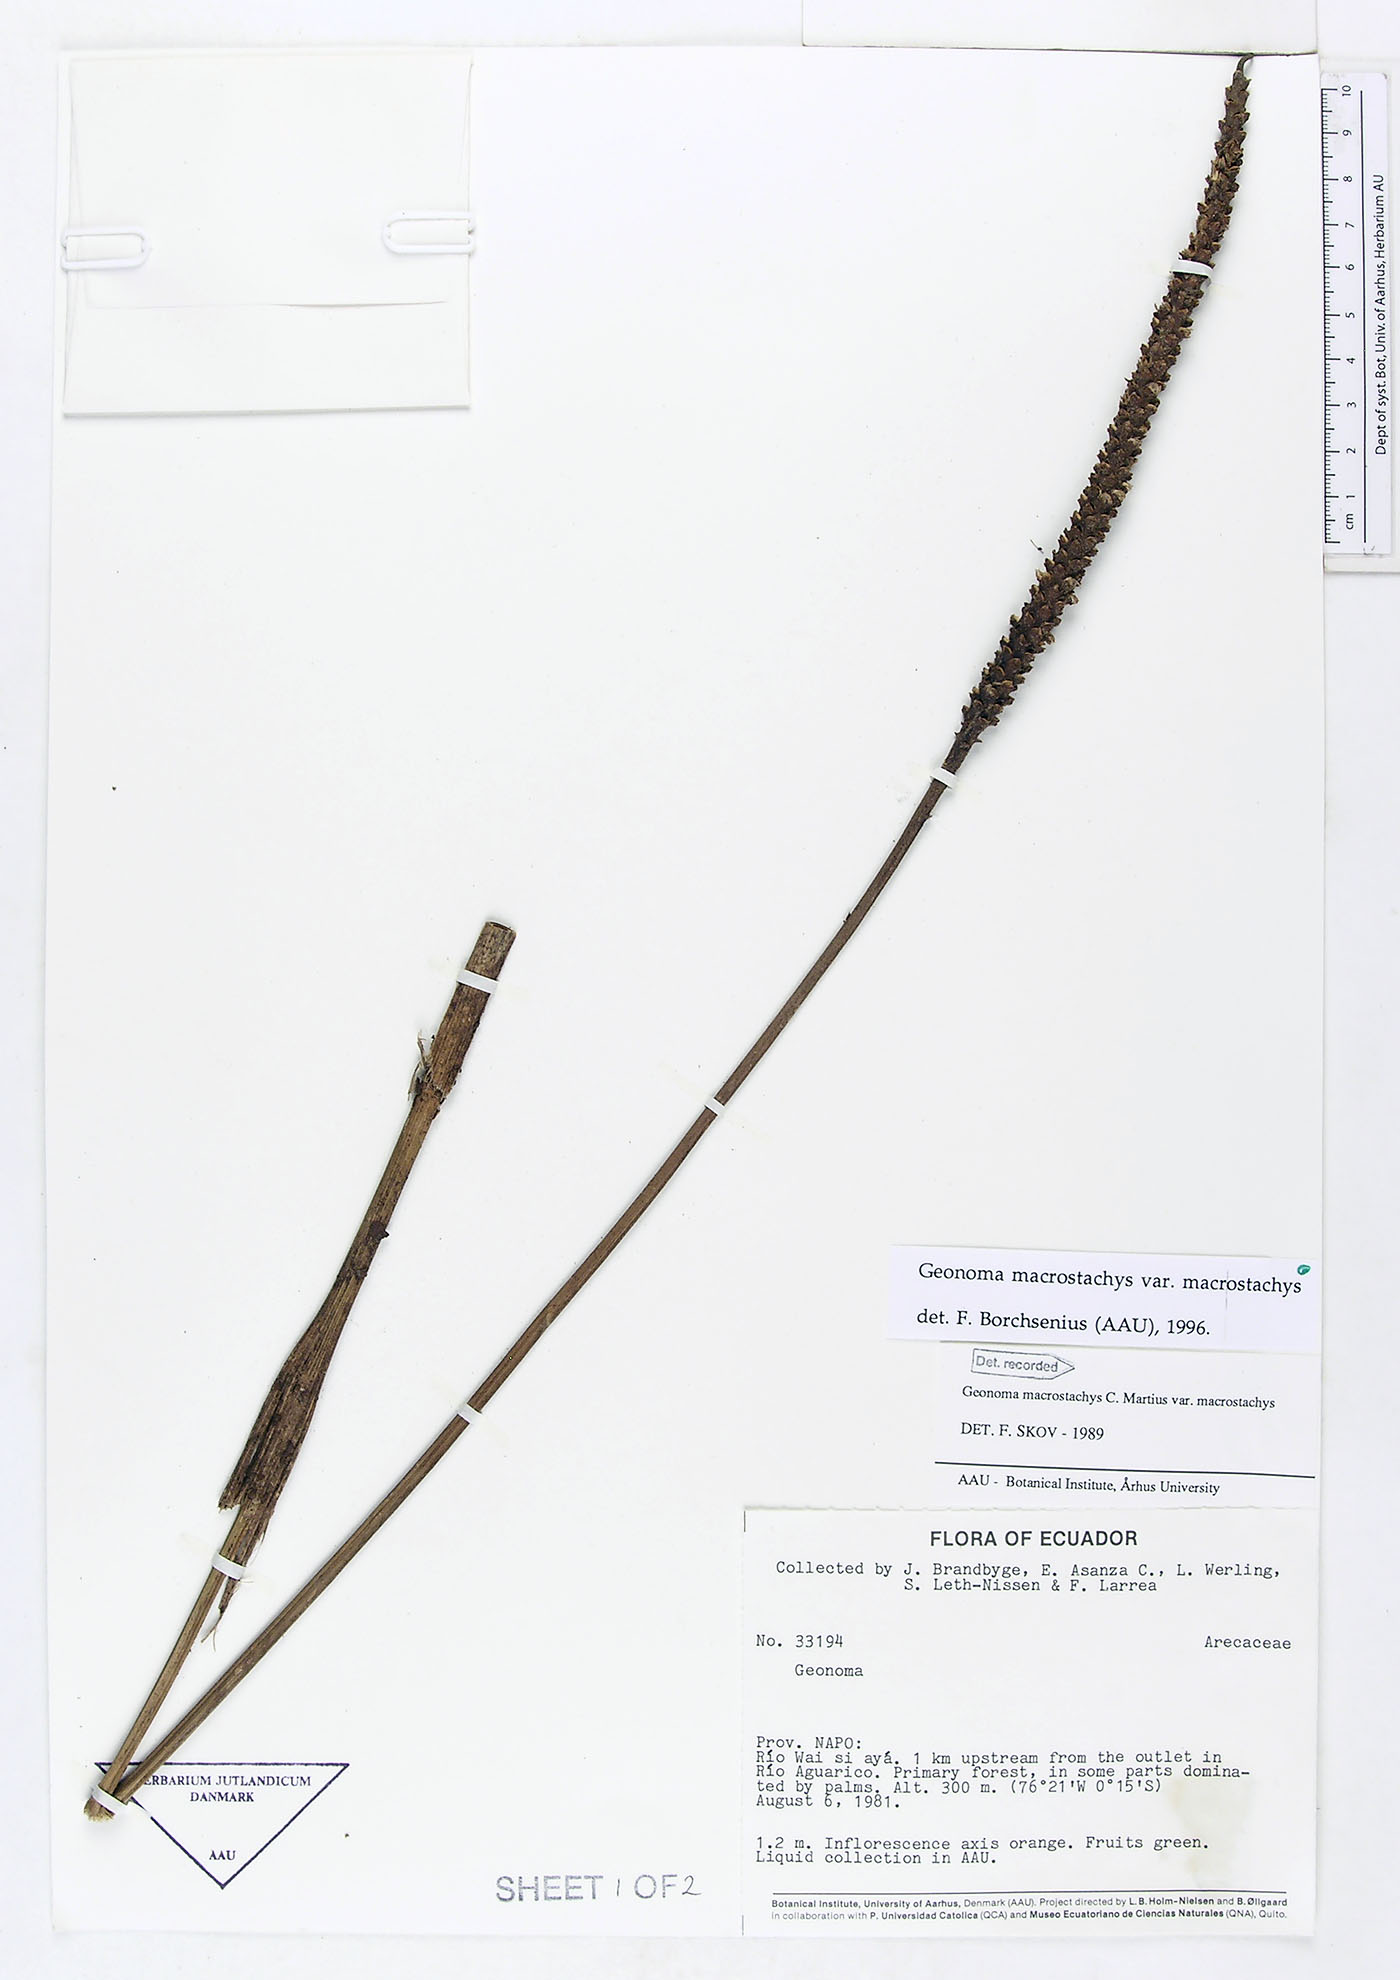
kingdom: Plantae
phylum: Tracheophyta
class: Liliopsida
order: Arecales
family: Arecaceae
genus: Geonoma
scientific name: Geonoma macrostachys
